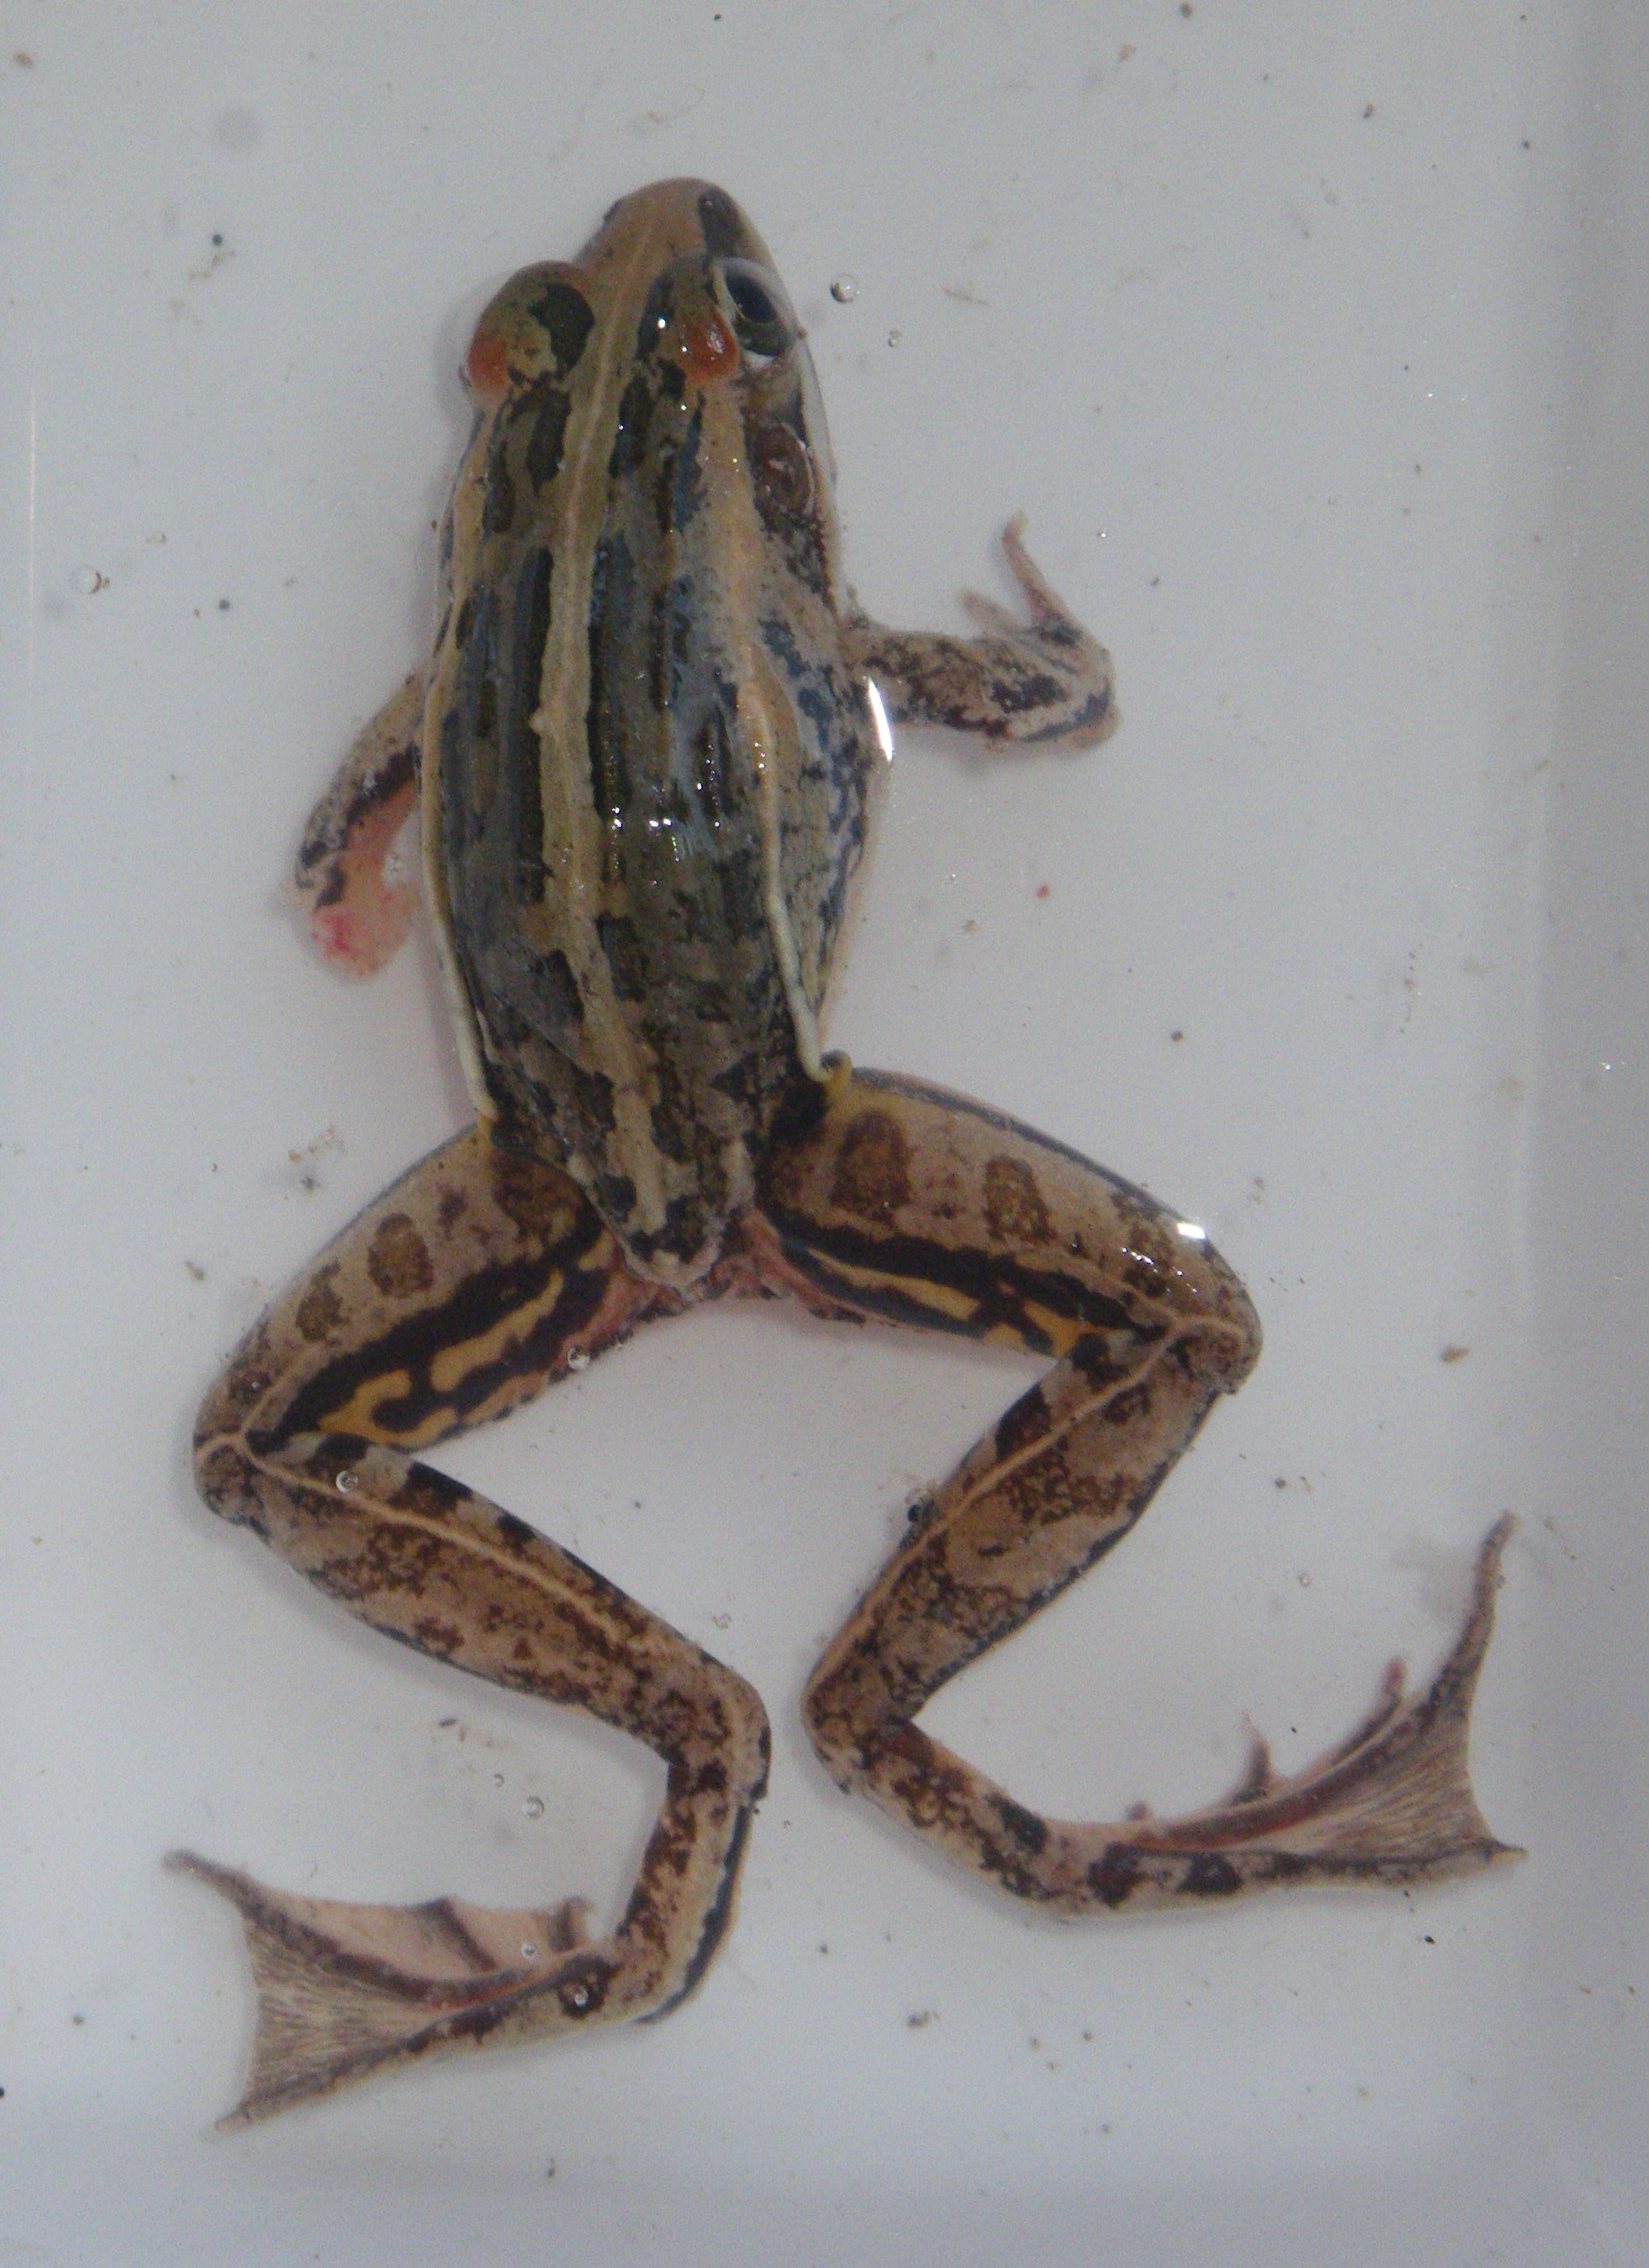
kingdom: Animalia
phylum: Chordata
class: Amphibia
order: Anura
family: Ptychadenidae
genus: Ptychadena
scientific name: Ptychadena mascareniensis
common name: Mascarene grass frog
